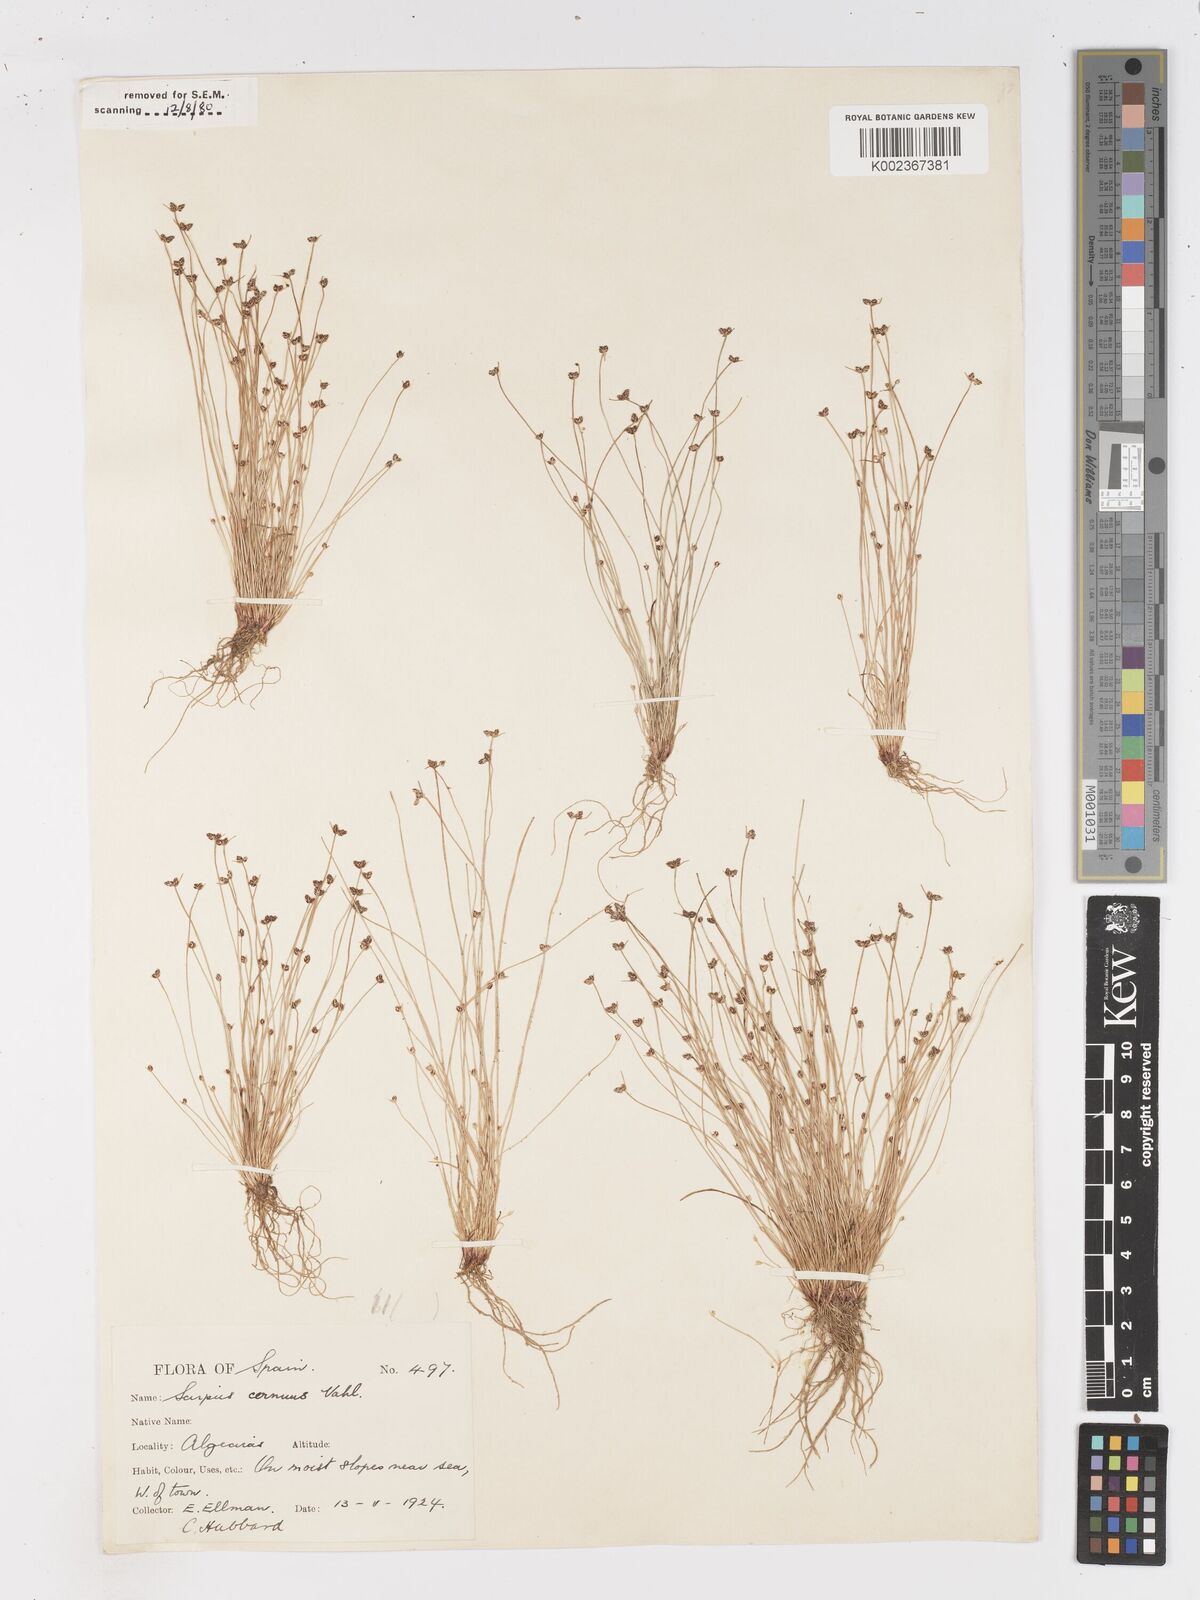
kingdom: Plantae
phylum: Tracheophyta
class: Liliopsida
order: Poales
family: Cyperaceae
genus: Isolepis
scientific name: Isolepis cernua
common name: Slender club-rush
